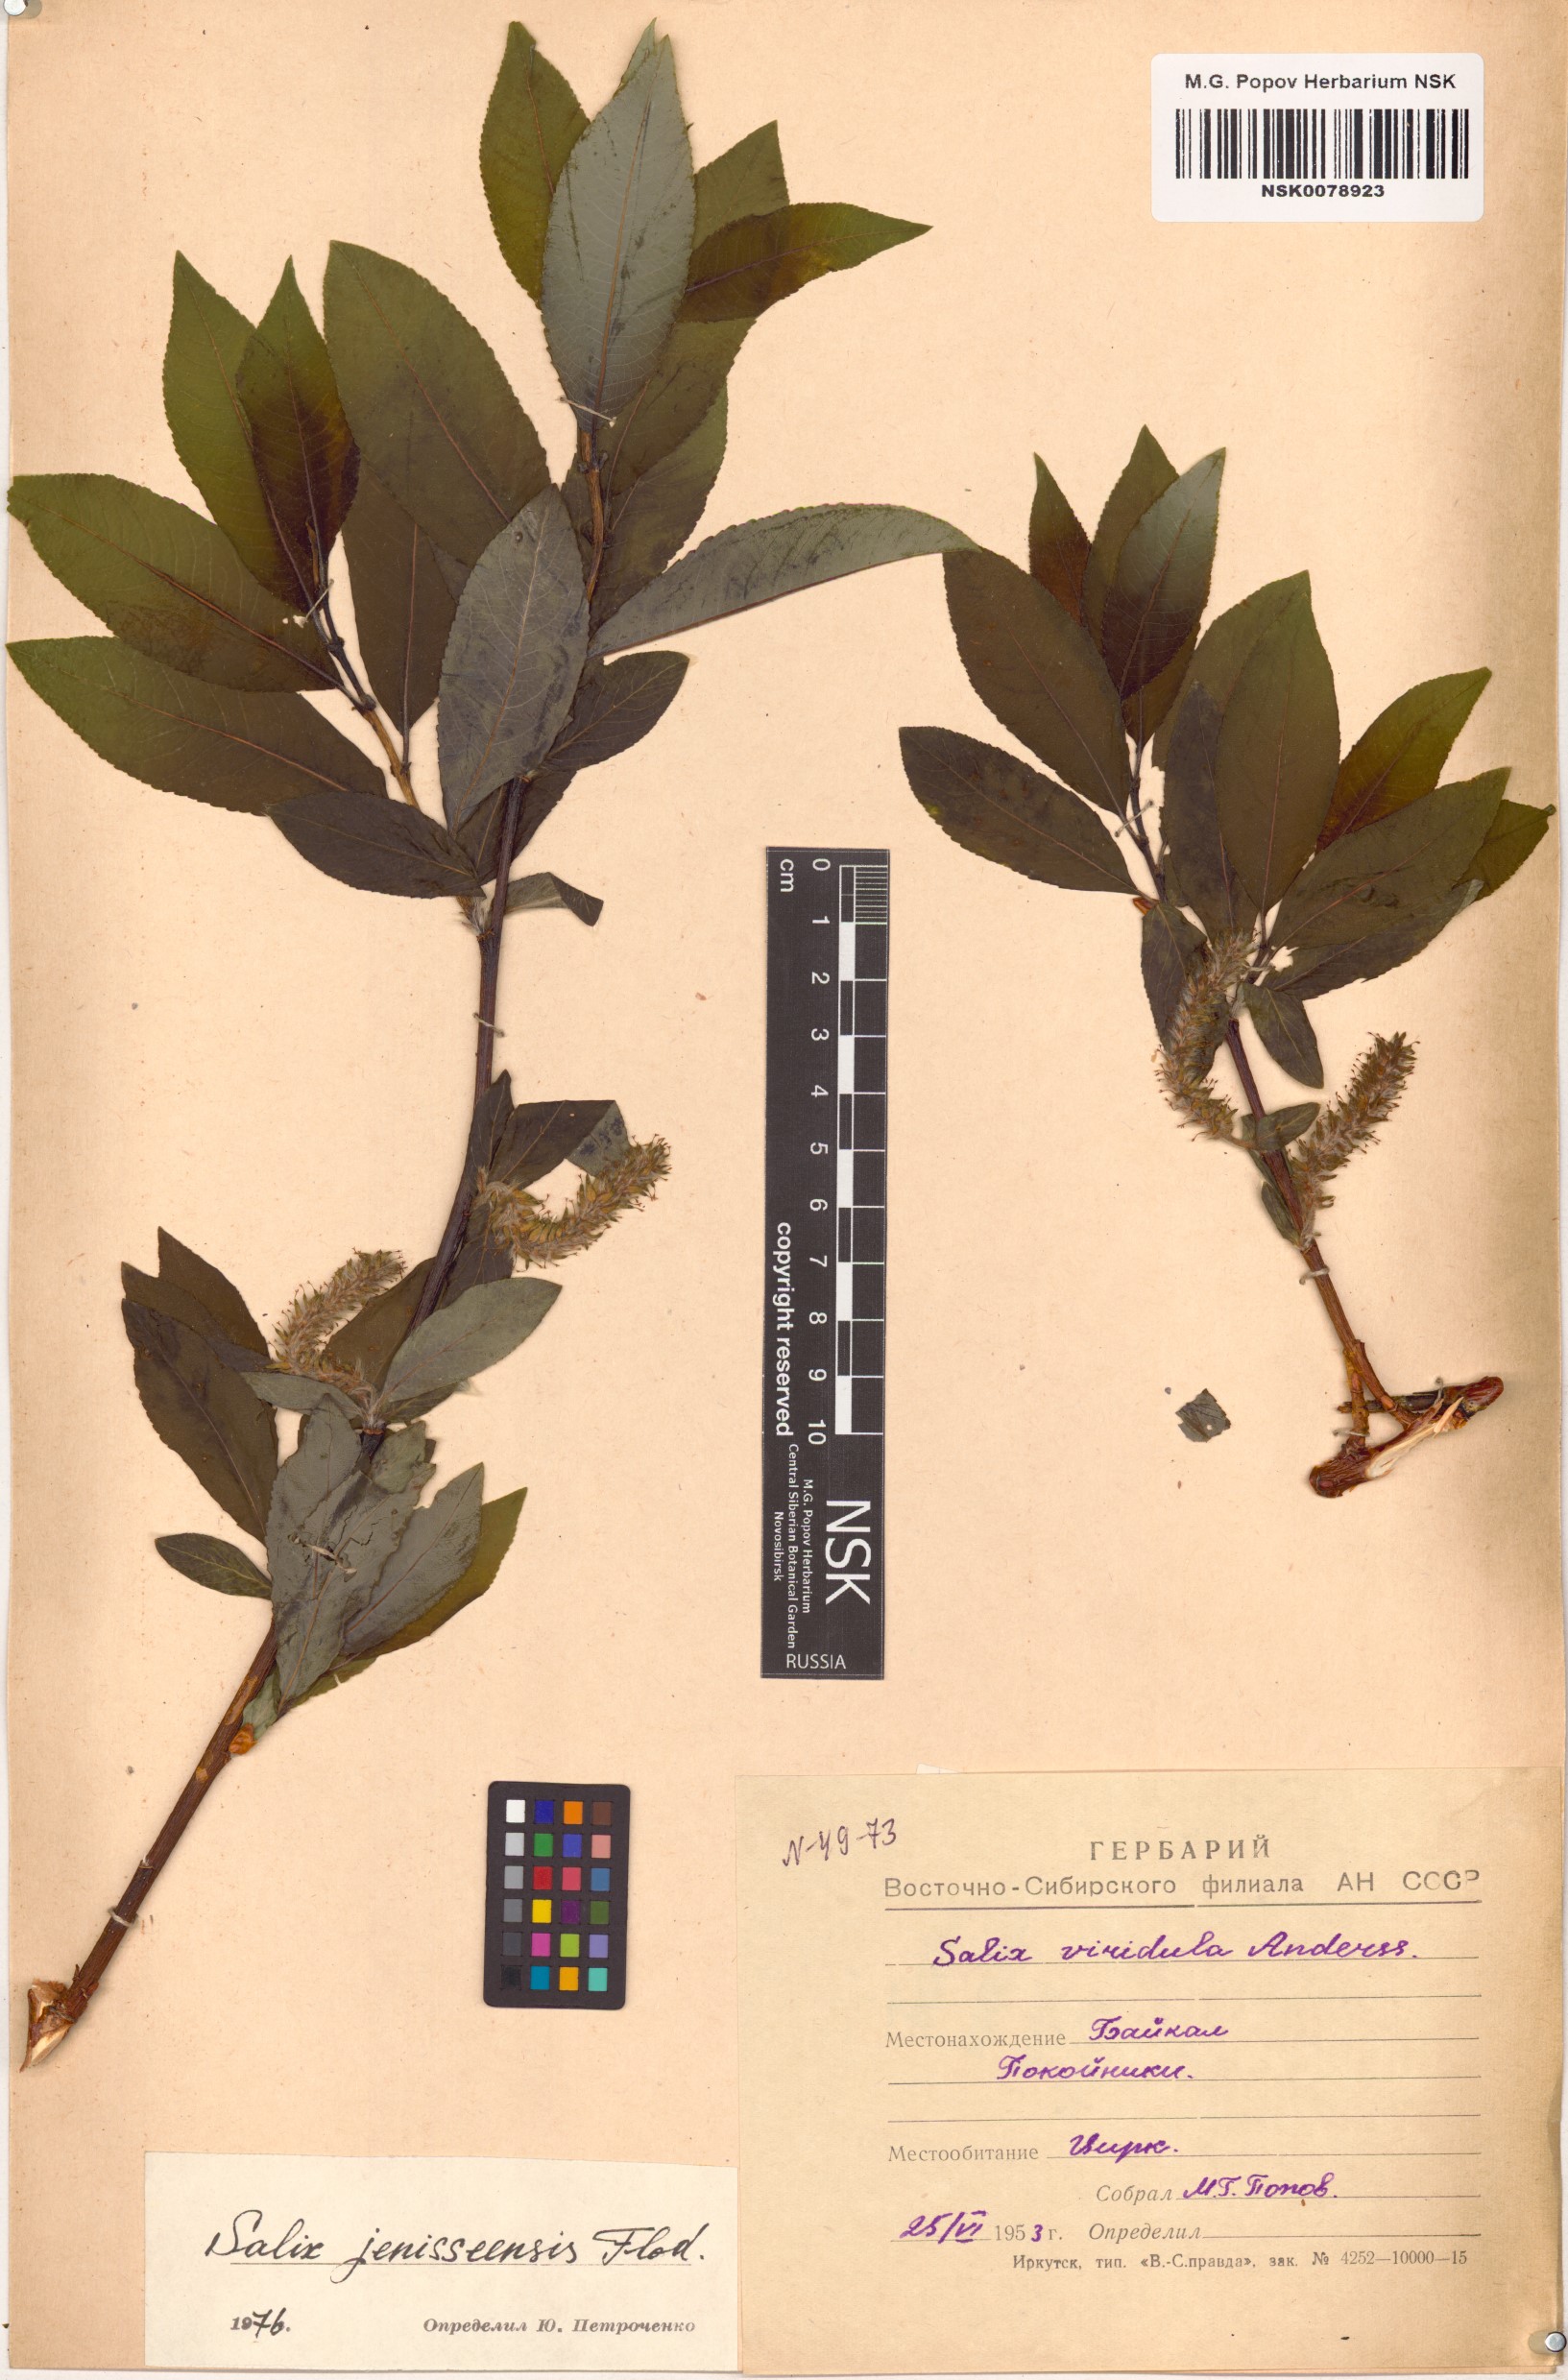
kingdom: Plantae
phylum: Tracheophyta
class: Magnoliopsida
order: Malpighiales
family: Salicaceae
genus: Salix
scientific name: Salix jenisseensis
